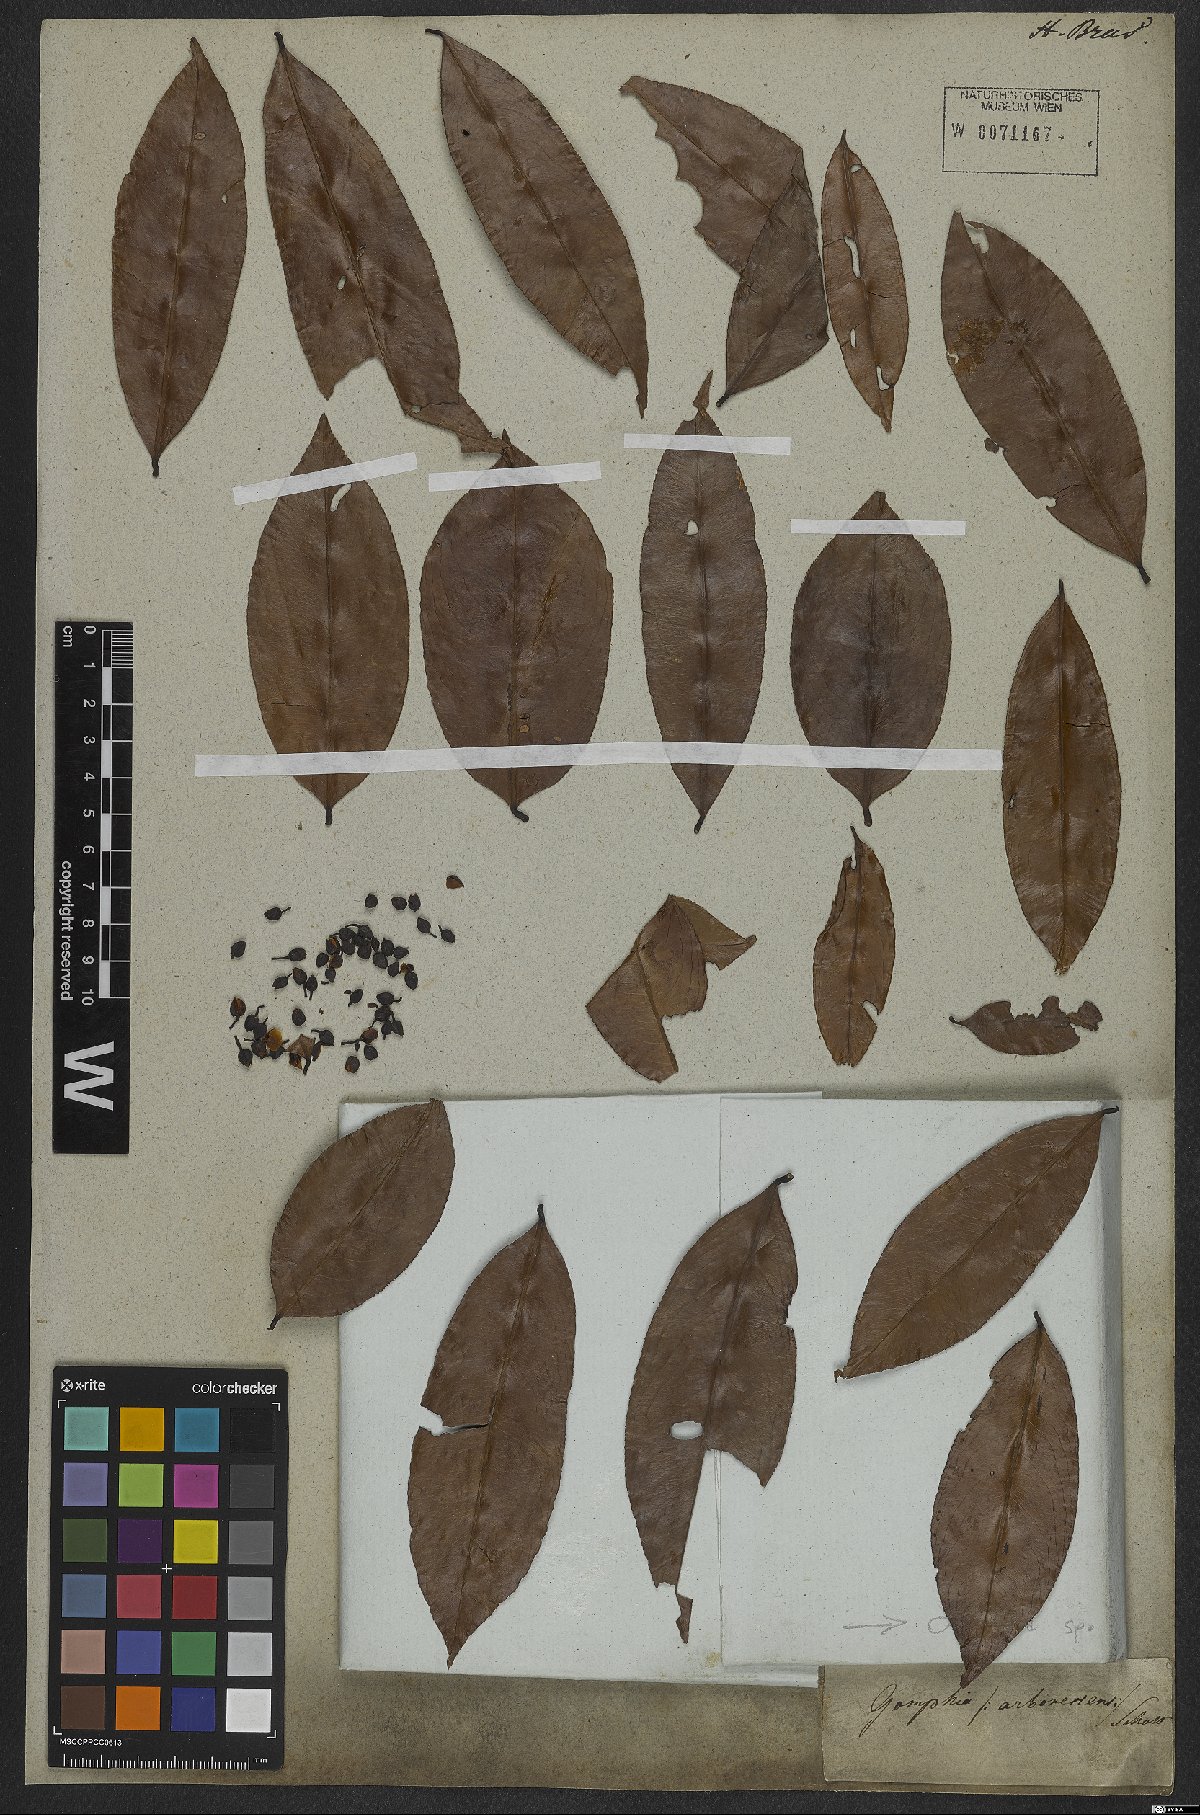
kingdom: Plantae
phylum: Tracheophyta
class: Magnoliopsida
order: Malpighiales
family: Ochnaceae
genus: Ouratea
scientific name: Ouratea
